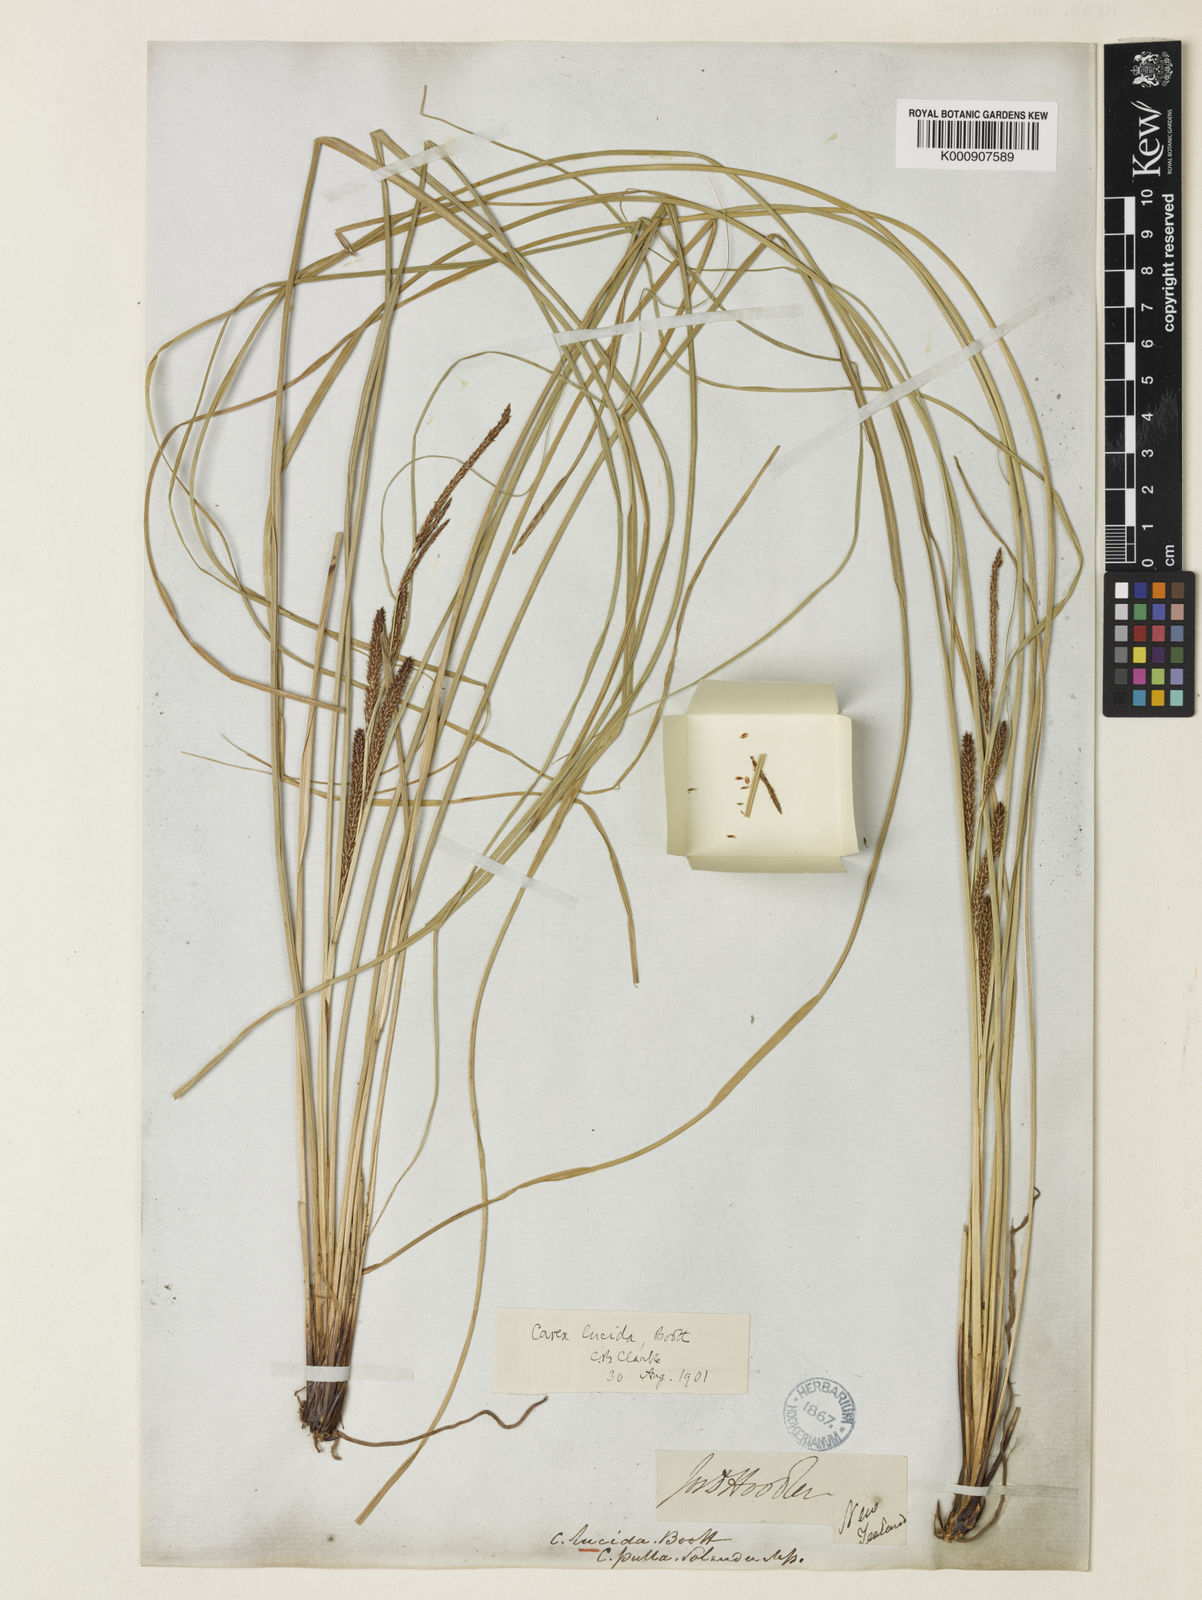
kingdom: Plantae
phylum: Tracheophyta
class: Liliopsida
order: Poales
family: Cyperaceae
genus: Carex
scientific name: Carex flagellifera
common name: Glen murray tussock
